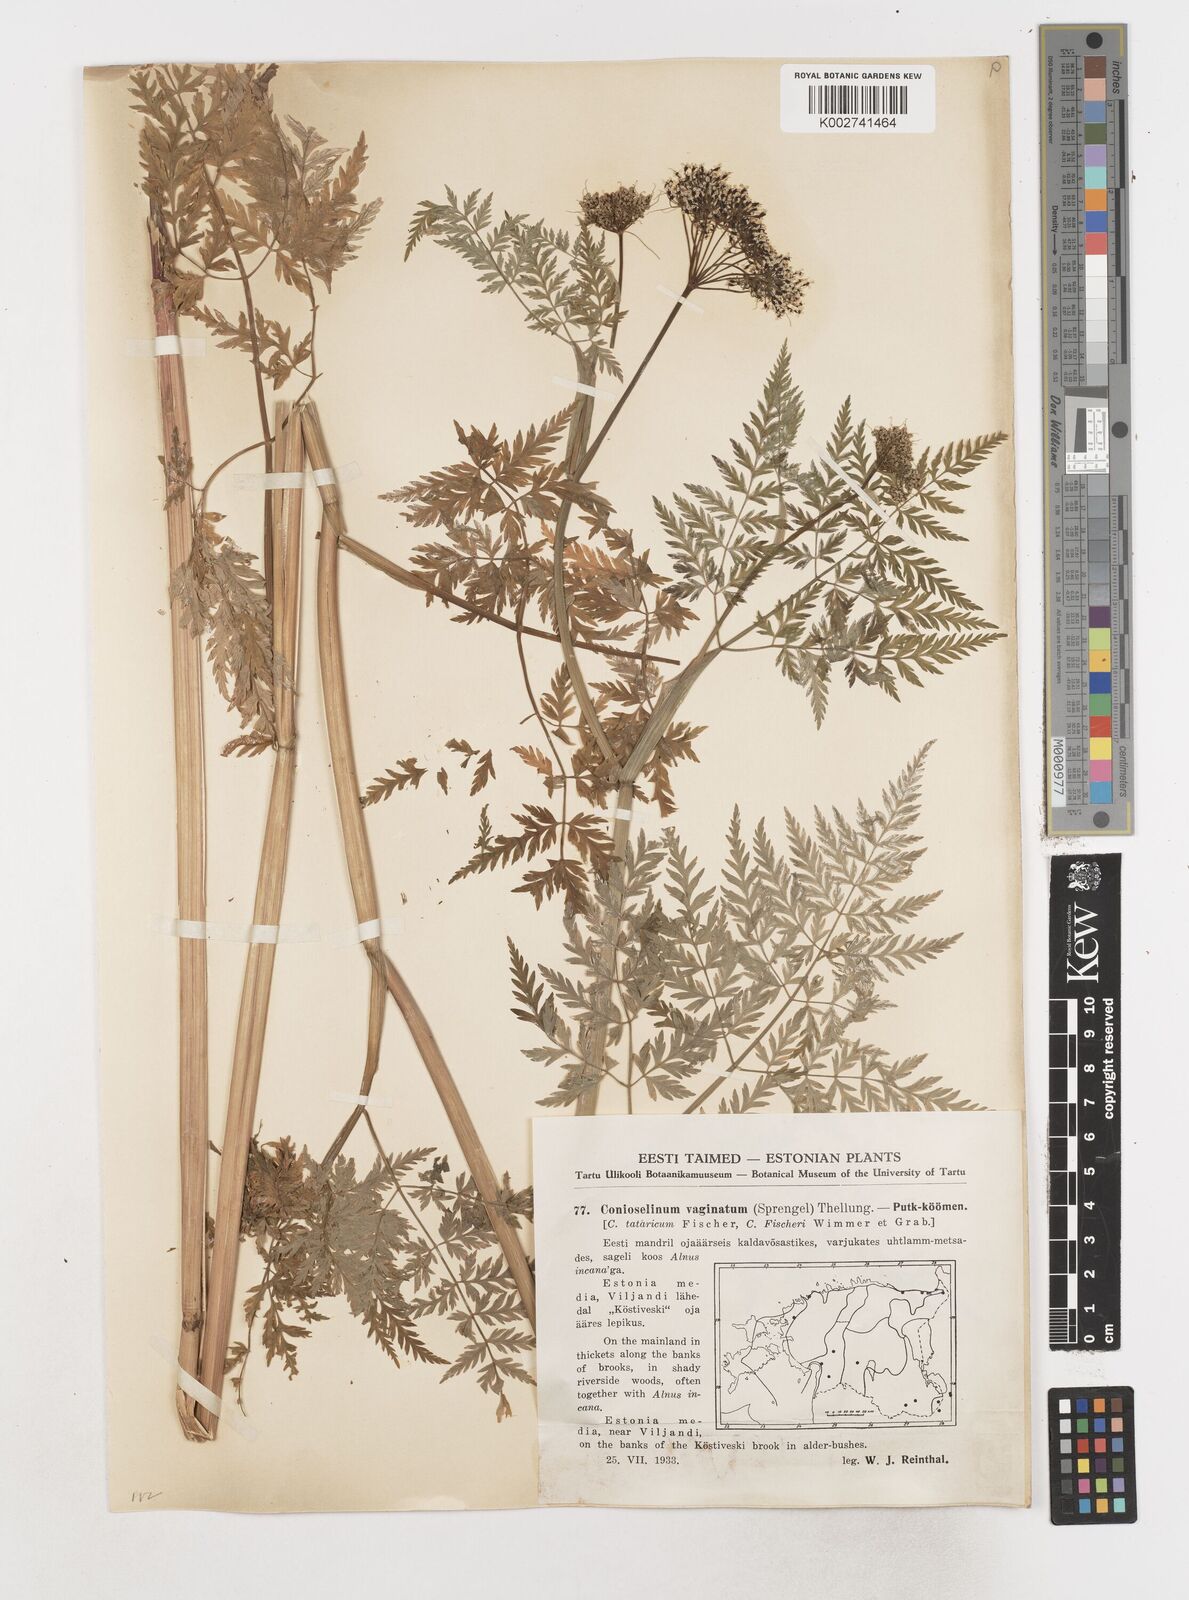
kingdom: Plantae
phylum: Tracheophyta
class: Magnoliopsida
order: Apiales
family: Apiaceae
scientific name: Apiaceae
